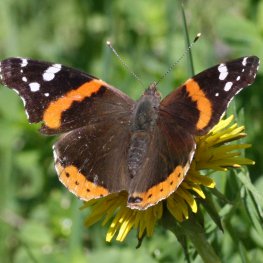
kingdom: Animalia
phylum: Arthropoda
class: Insecta
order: Lepidoptera
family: Nymphalidae
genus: Vanessa
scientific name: Vanessa atalanta
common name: Red Admiral
